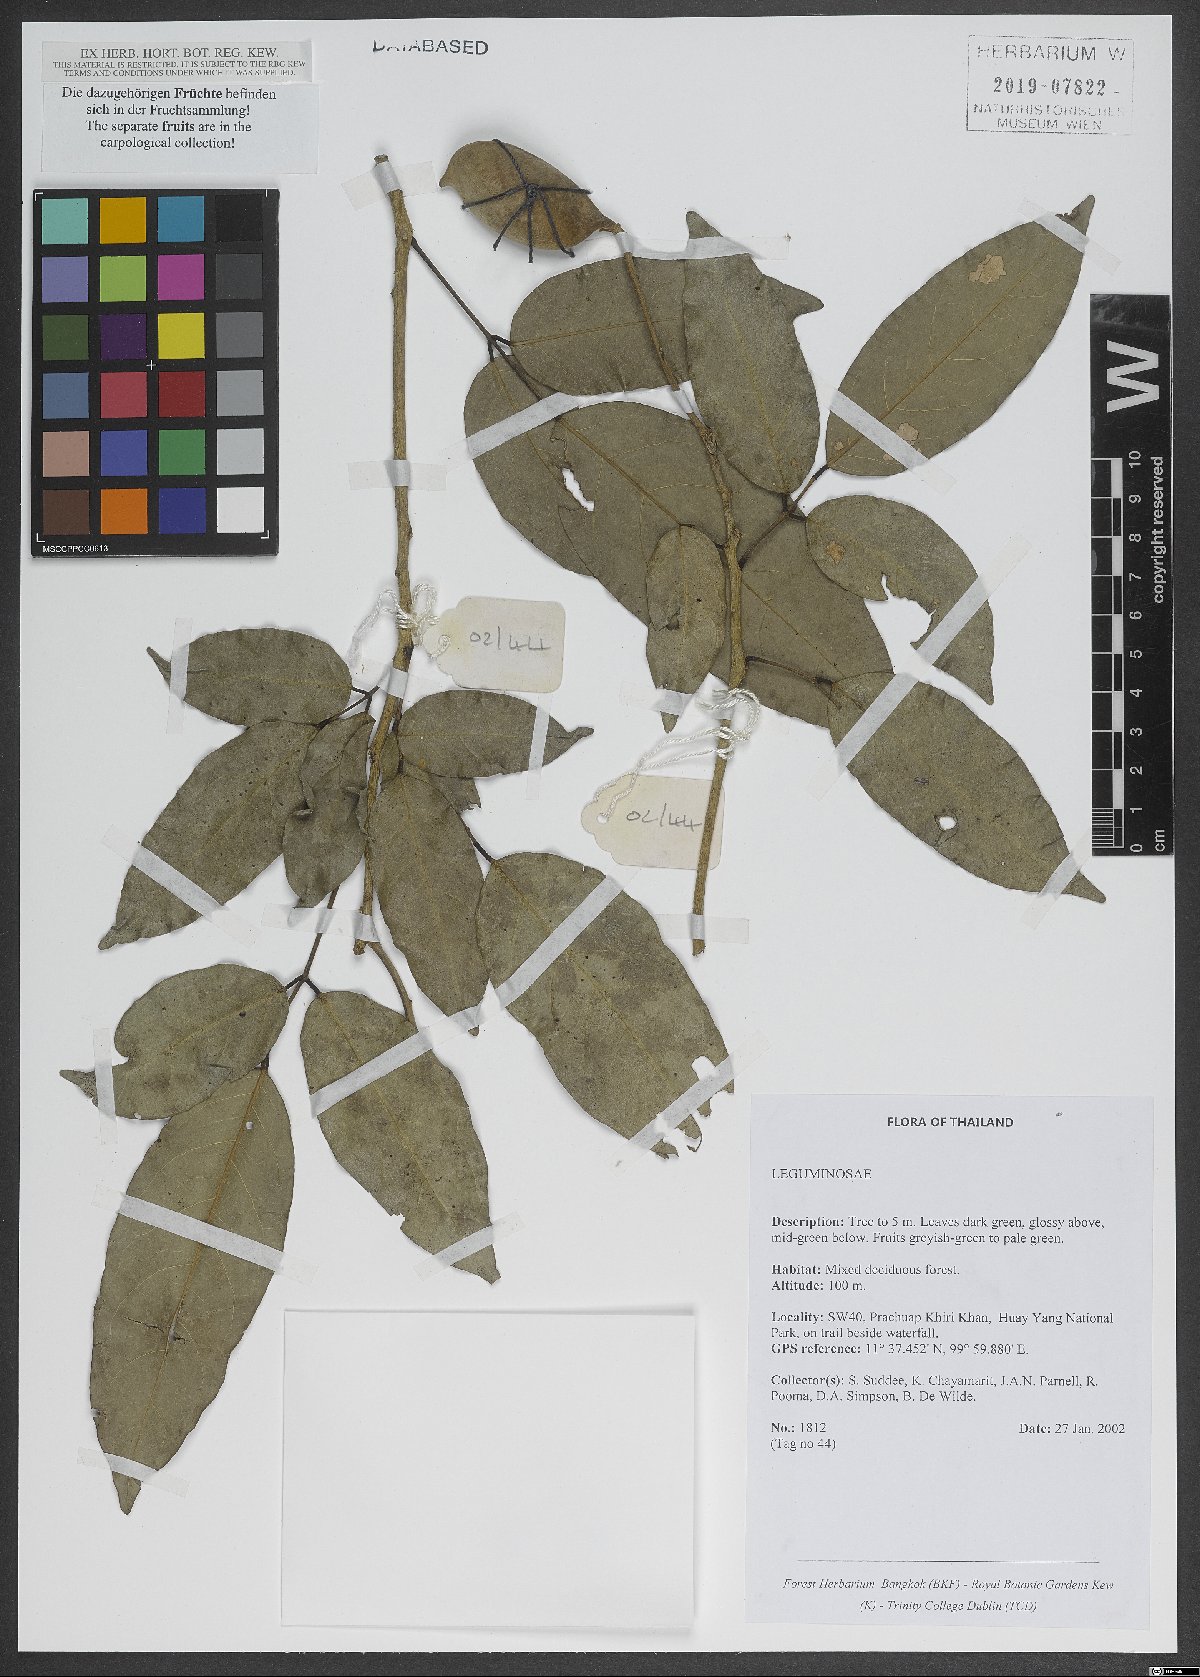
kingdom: Plantae
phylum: Tracheophyta
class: Magnoliopsida
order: Fabales
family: Fabaceae
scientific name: Fabaceae
